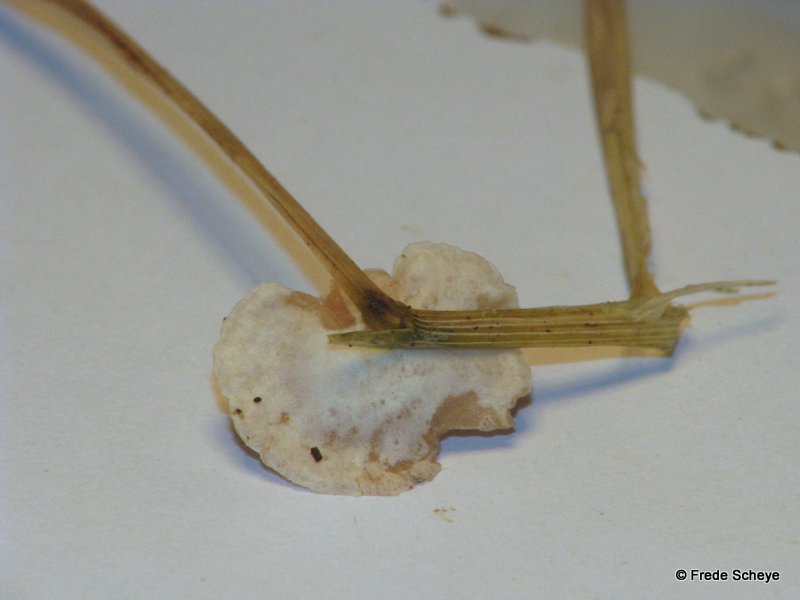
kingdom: Fungi
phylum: Basidiomycota
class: Agaricomycetes
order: Agaricales
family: Crepidotaceae
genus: Crepidotus
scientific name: Crepidotus variabilis
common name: forskelligformet muslingesvamp
